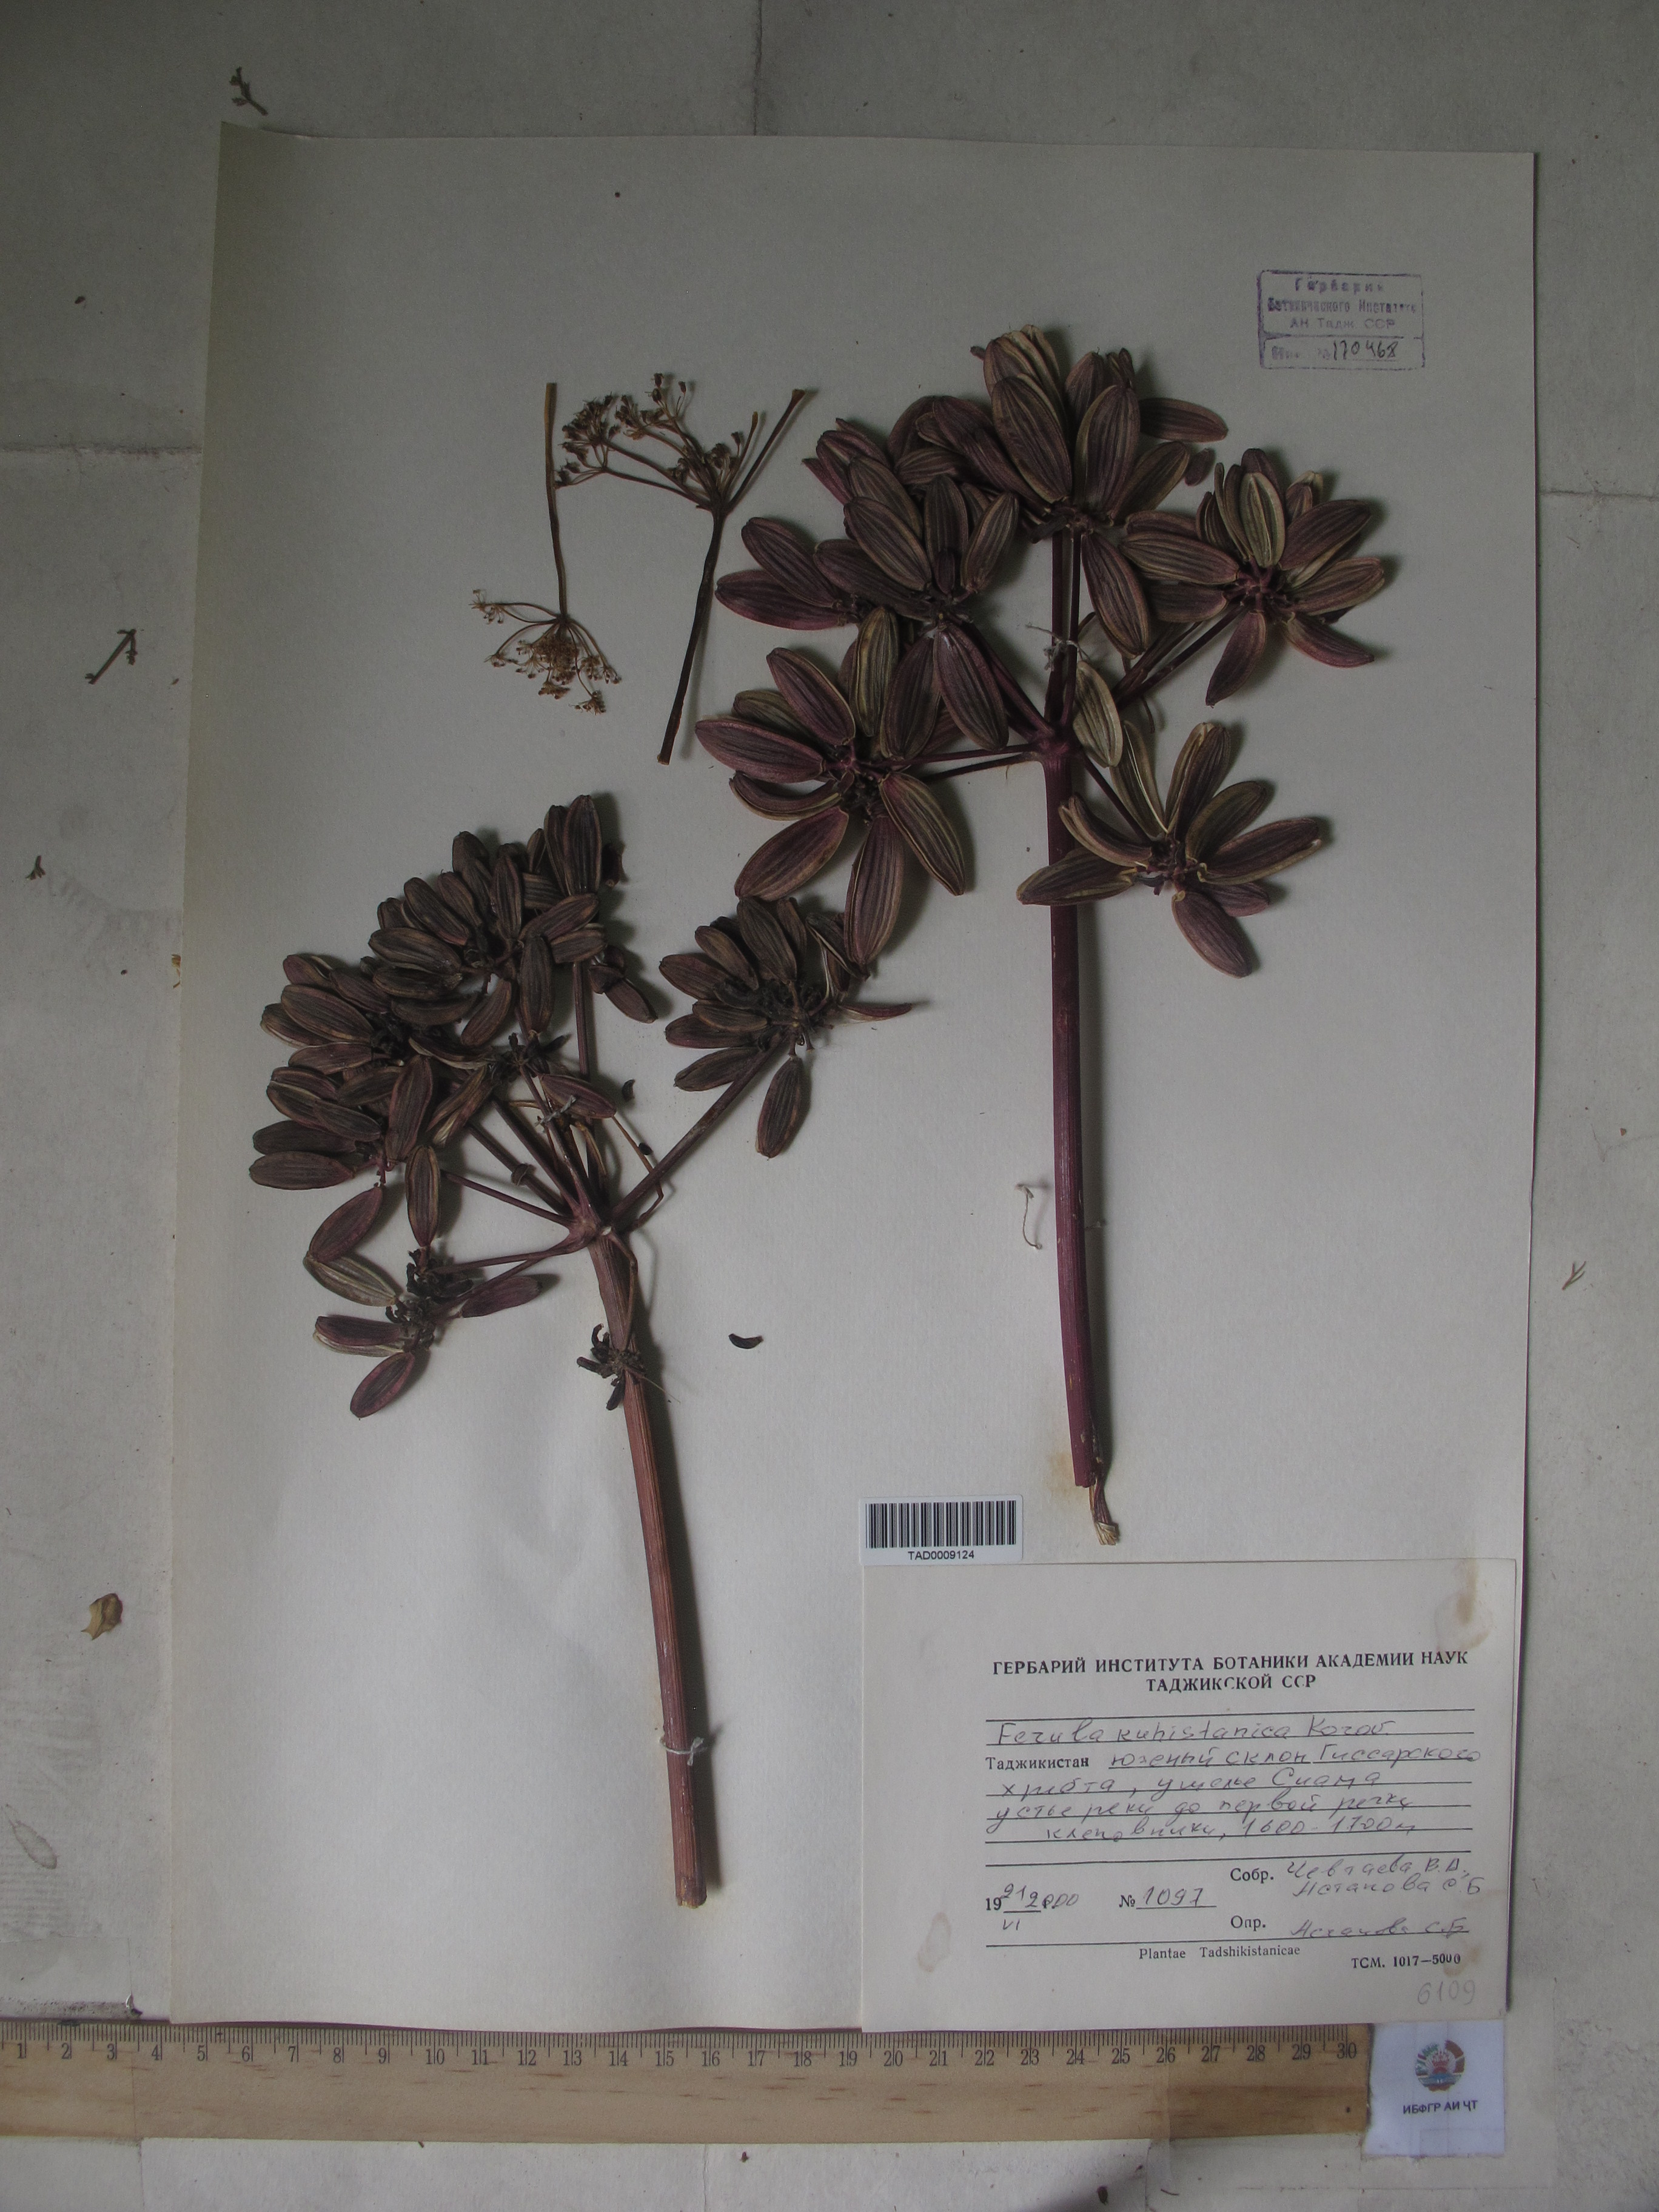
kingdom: Plantae
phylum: Tracheophyta
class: Magnoliopsida
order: Apiales
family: Apiaceae
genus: Ferula
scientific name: Ferula kuhistanica
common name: Kamol
